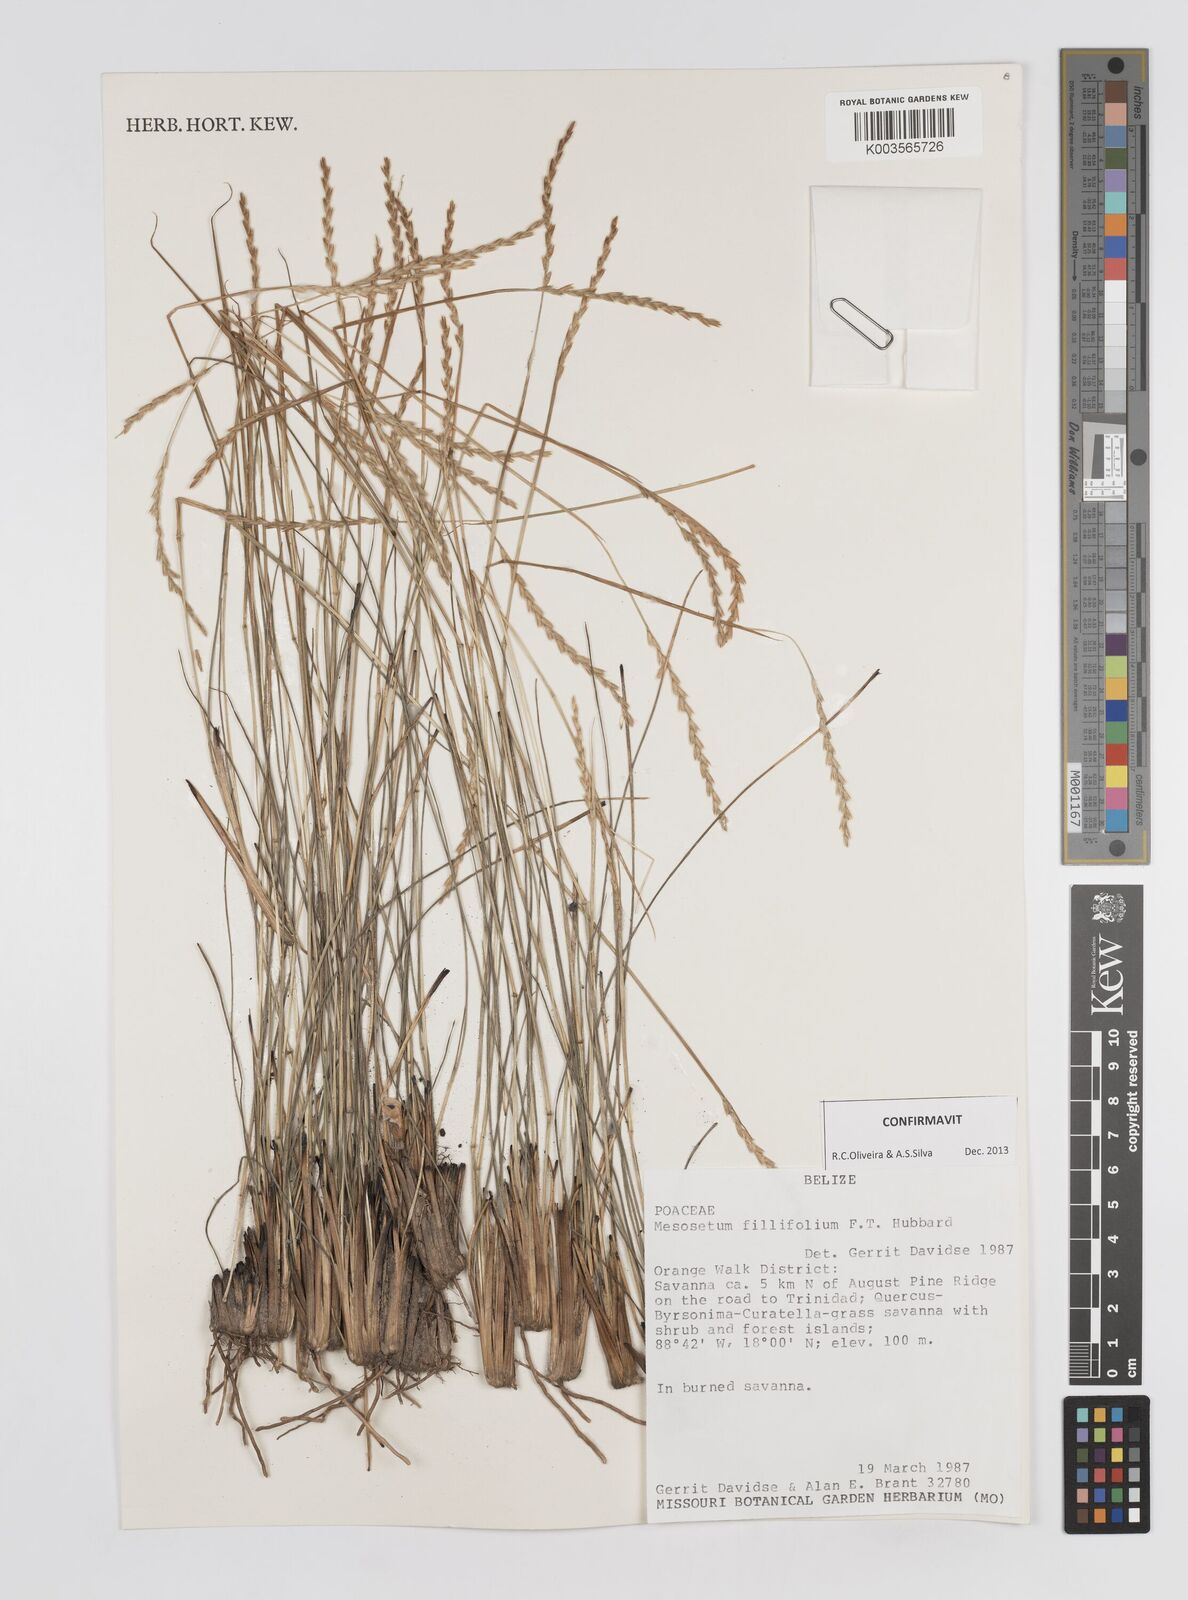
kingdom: Plantae
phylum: Tracheophyta
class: Liliopsida
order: Poales
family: Poaceae
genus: Mesosetum
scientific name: Mesosetum filifolium
